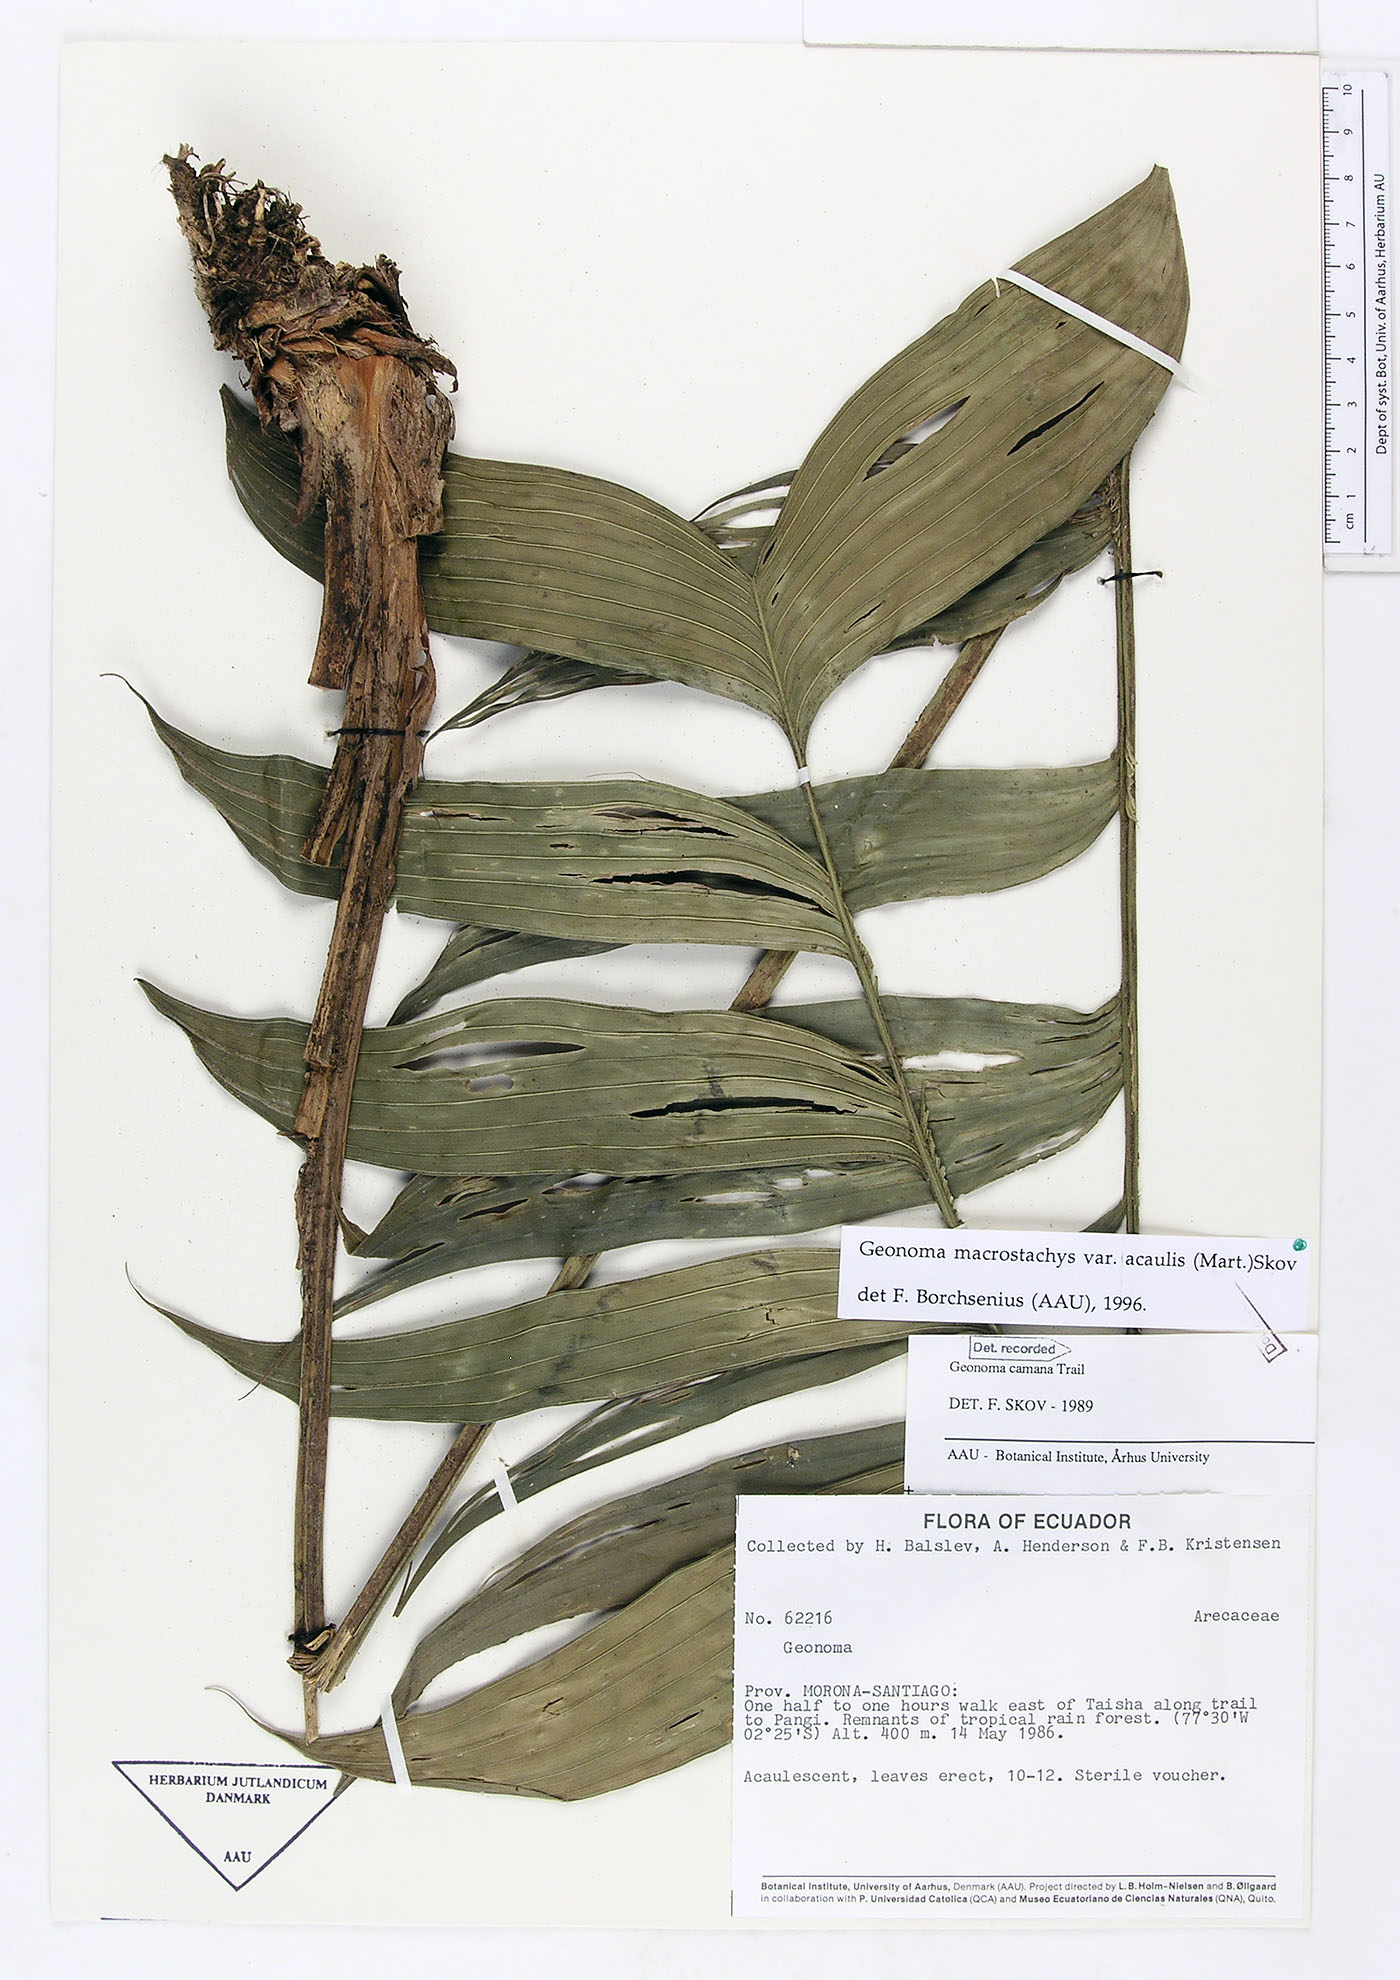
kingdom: Plantae
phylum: Tracheophyta
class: Liliopsida
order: Arecales
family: Arecaceae
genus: Geonoma
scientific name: Geonoma macrostachys
